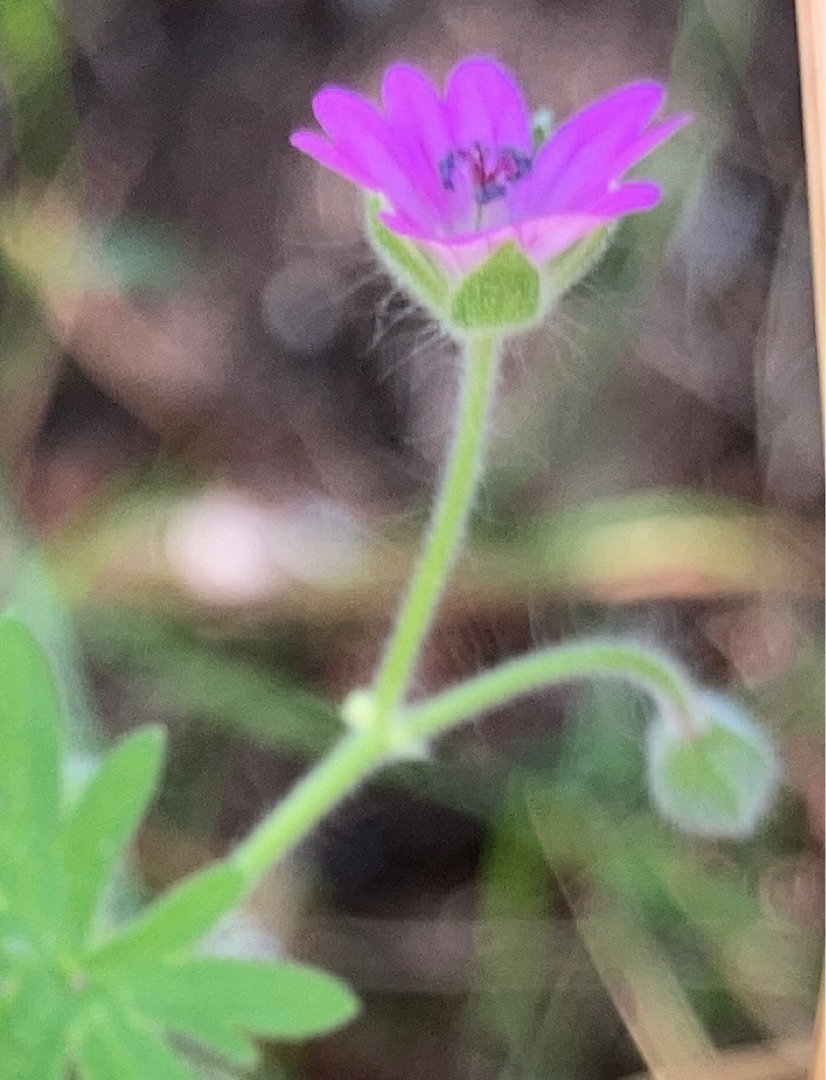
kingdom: Plantae
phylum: Tracheophyta
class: Magnoliopsida
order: Geraniales
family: Geraniaceae
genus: Geranium
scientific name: Geranium molle
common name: Blød storkenæb
